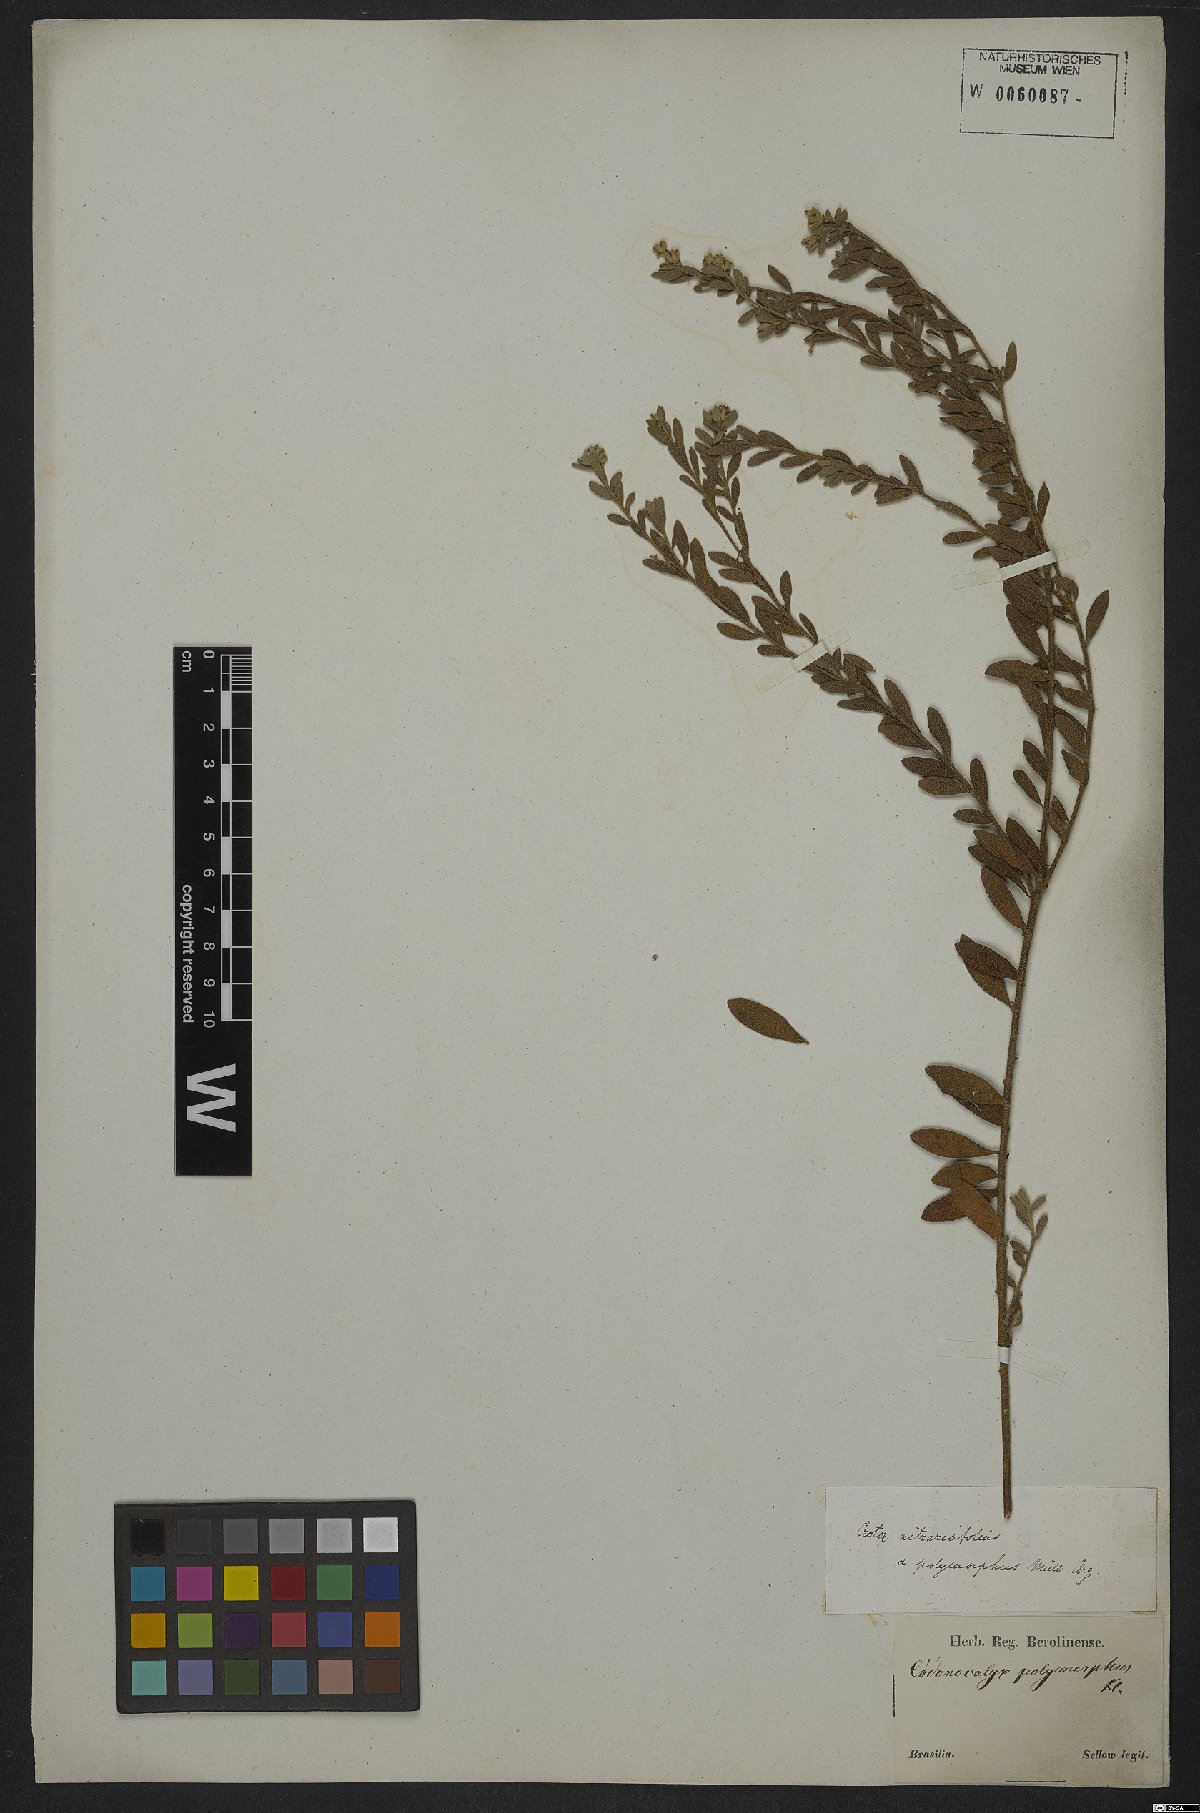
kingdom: Plantae
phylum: Tracheophyta
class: Magnoliopsida
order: Malpighiales
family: Euphorbiaceae
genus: Croton
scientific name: Croton nitrariaefolius
